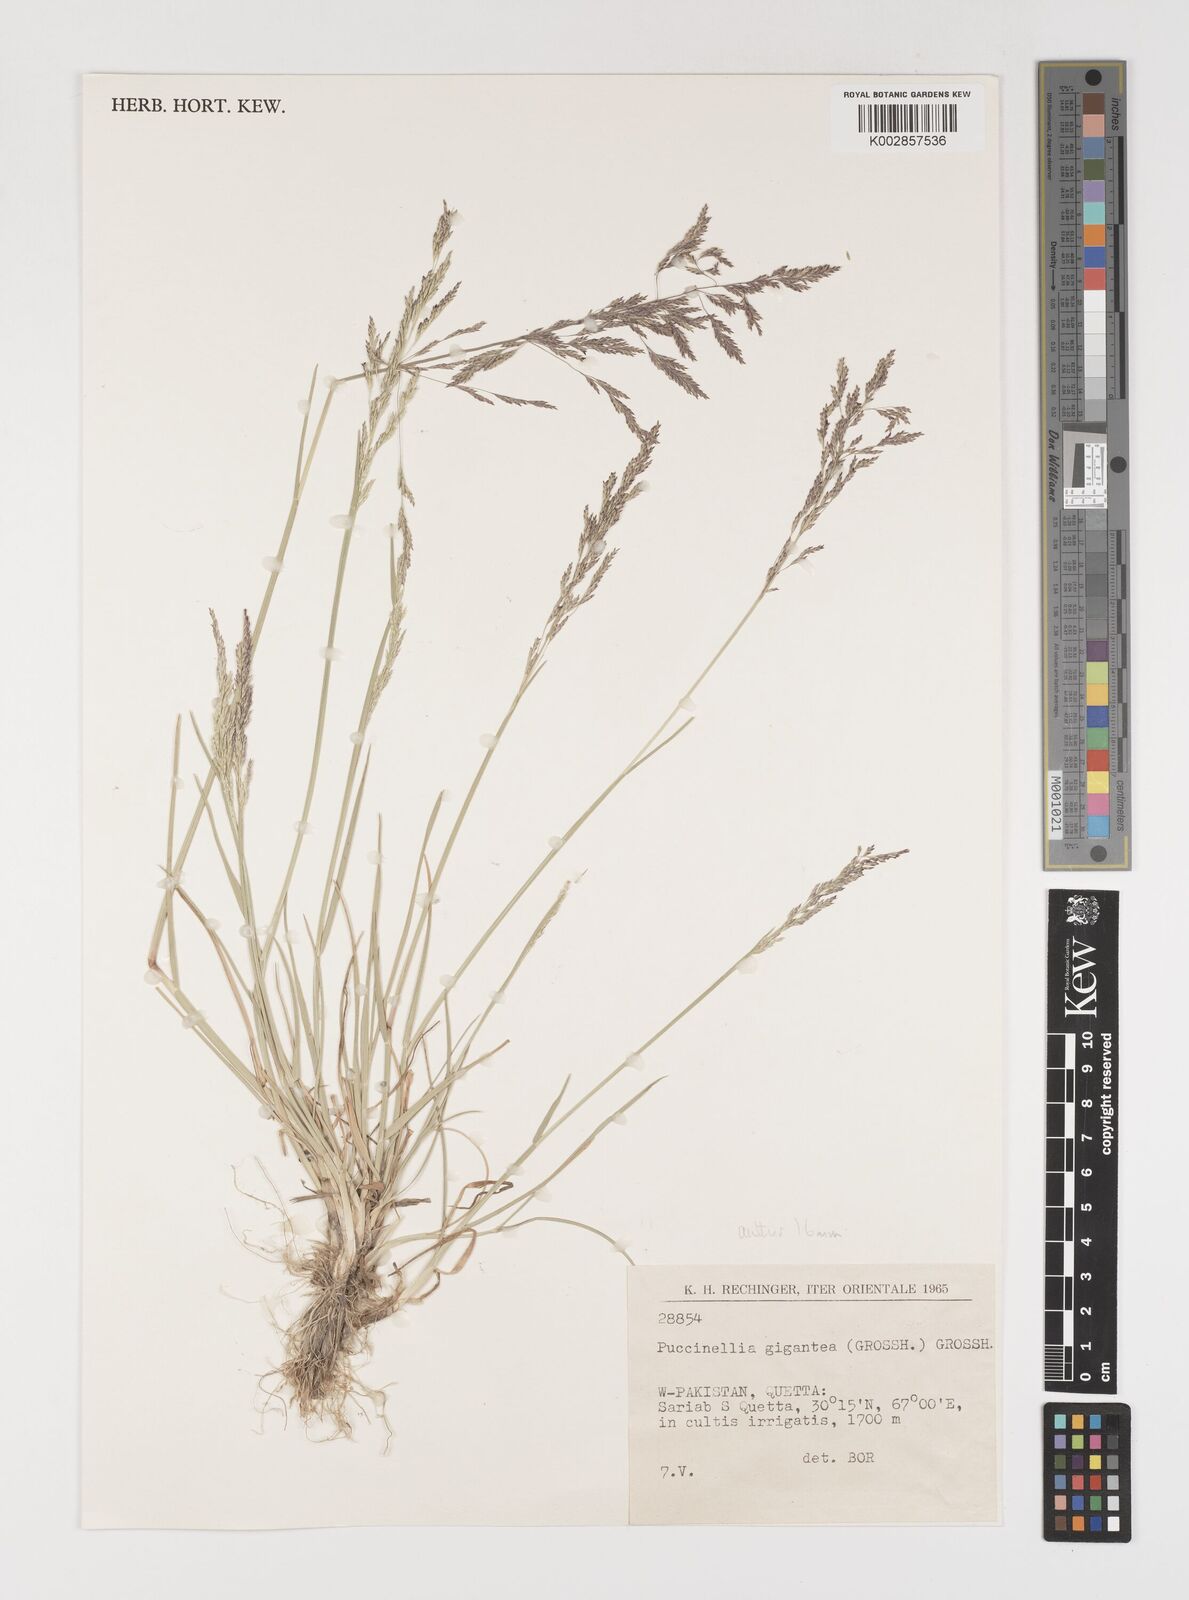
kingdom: Plantae
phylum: Tracheophyta
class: Liliopsida
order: Poales
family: Poaceae
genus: Puccinellia
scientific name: Puccinellia gigantea
